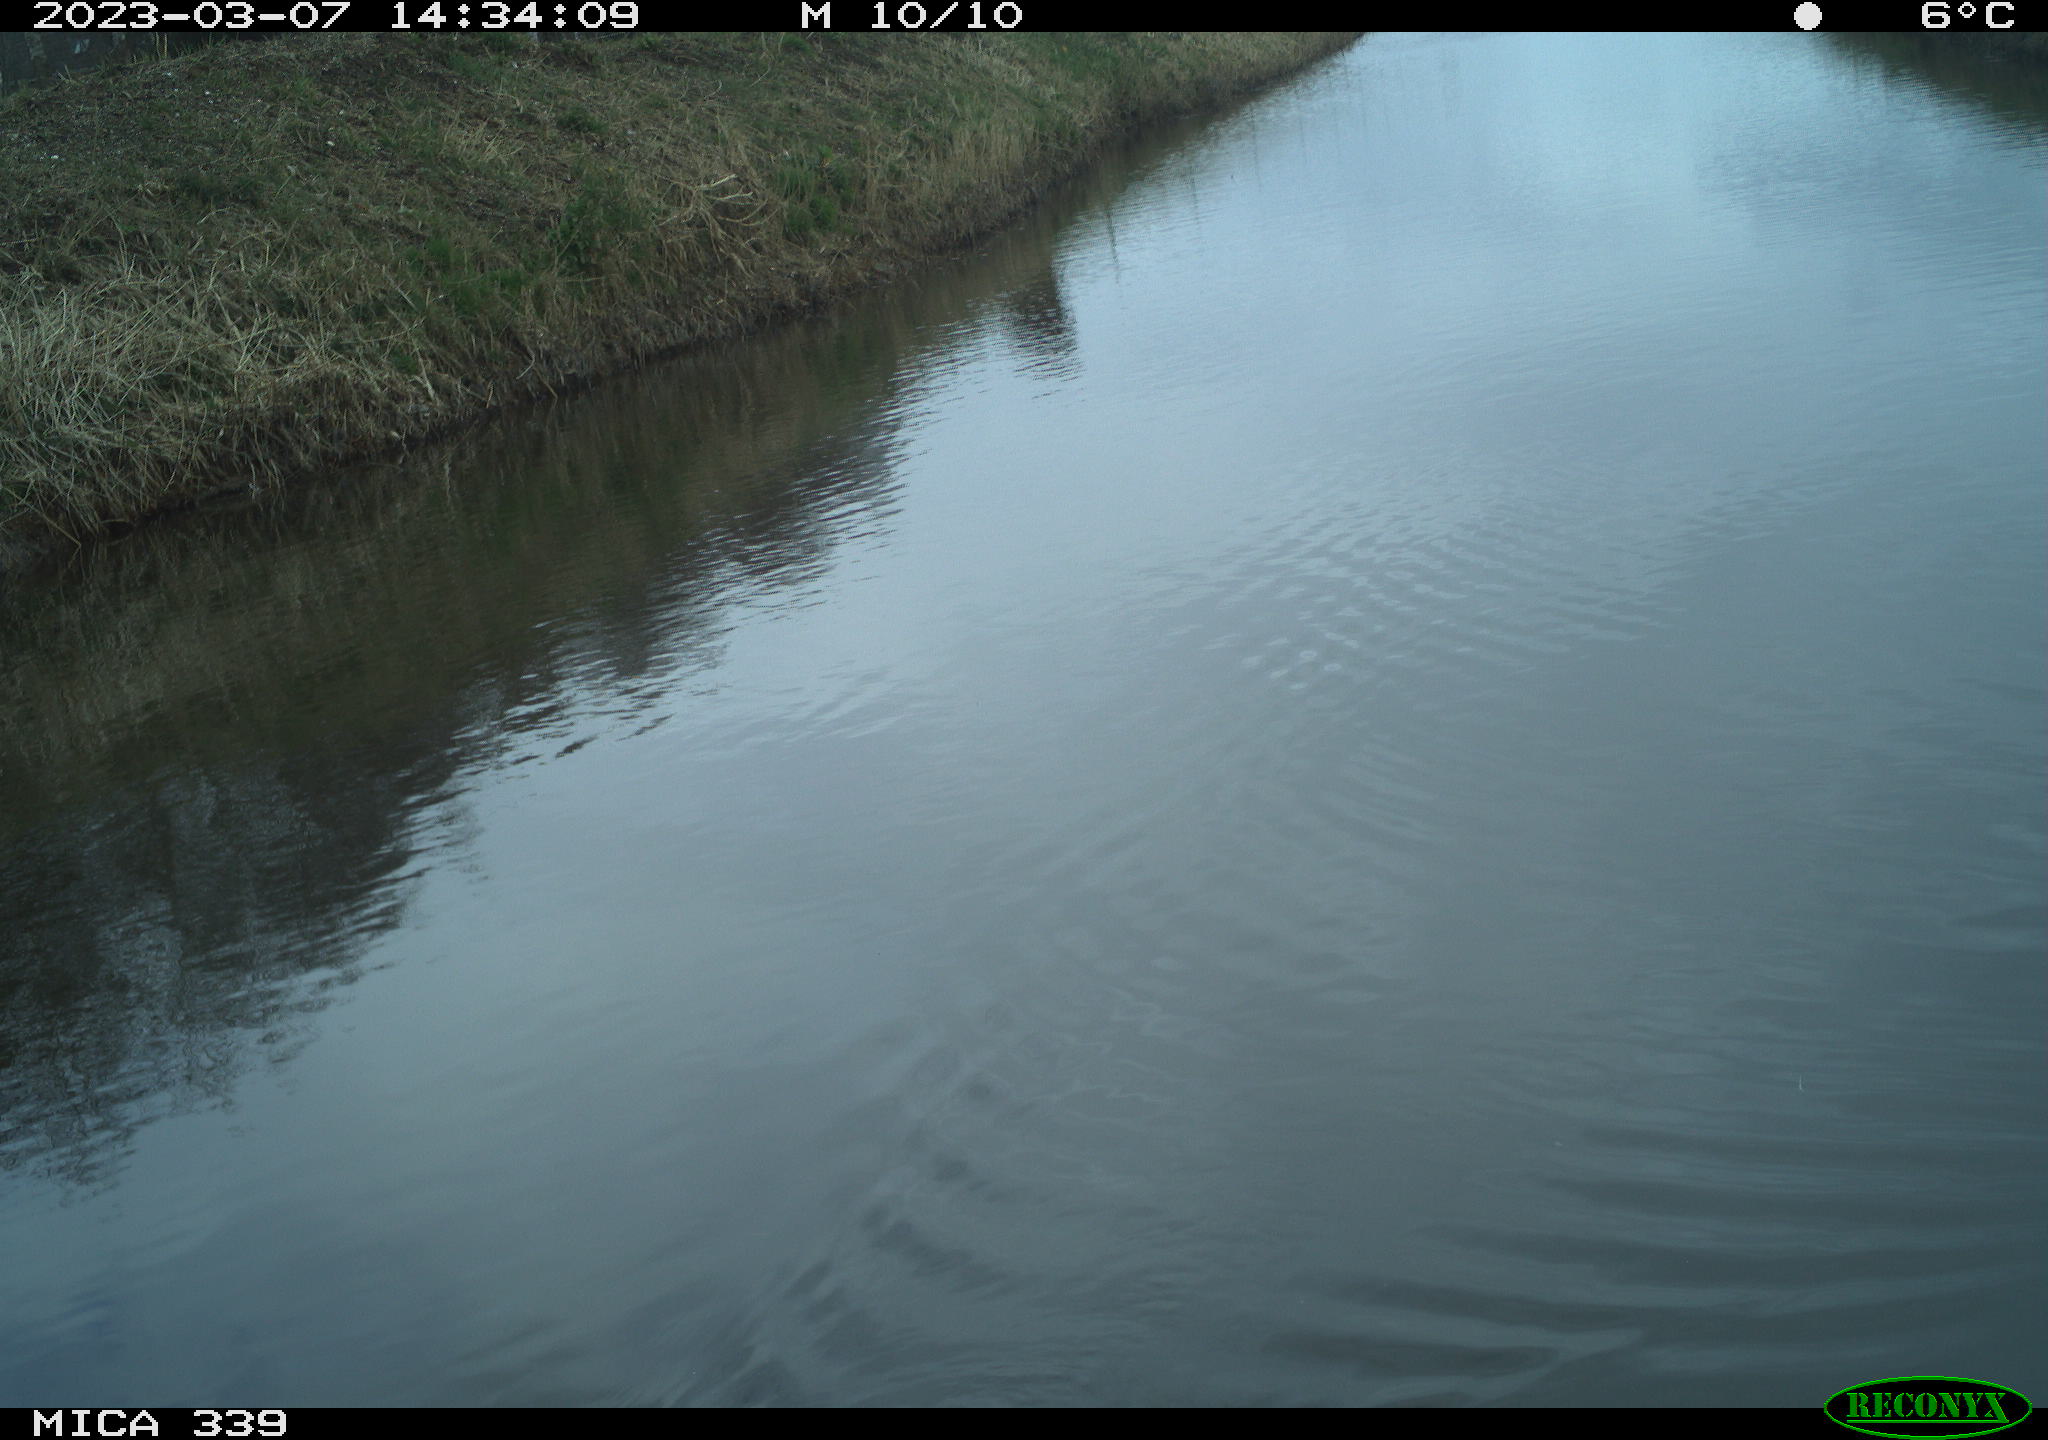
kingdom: Animalia
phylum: Chordata
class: Aves
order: Gruiformes
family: Rallidae
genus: Gallinula
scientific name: Gallinula chloropus
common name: Common moorhen
